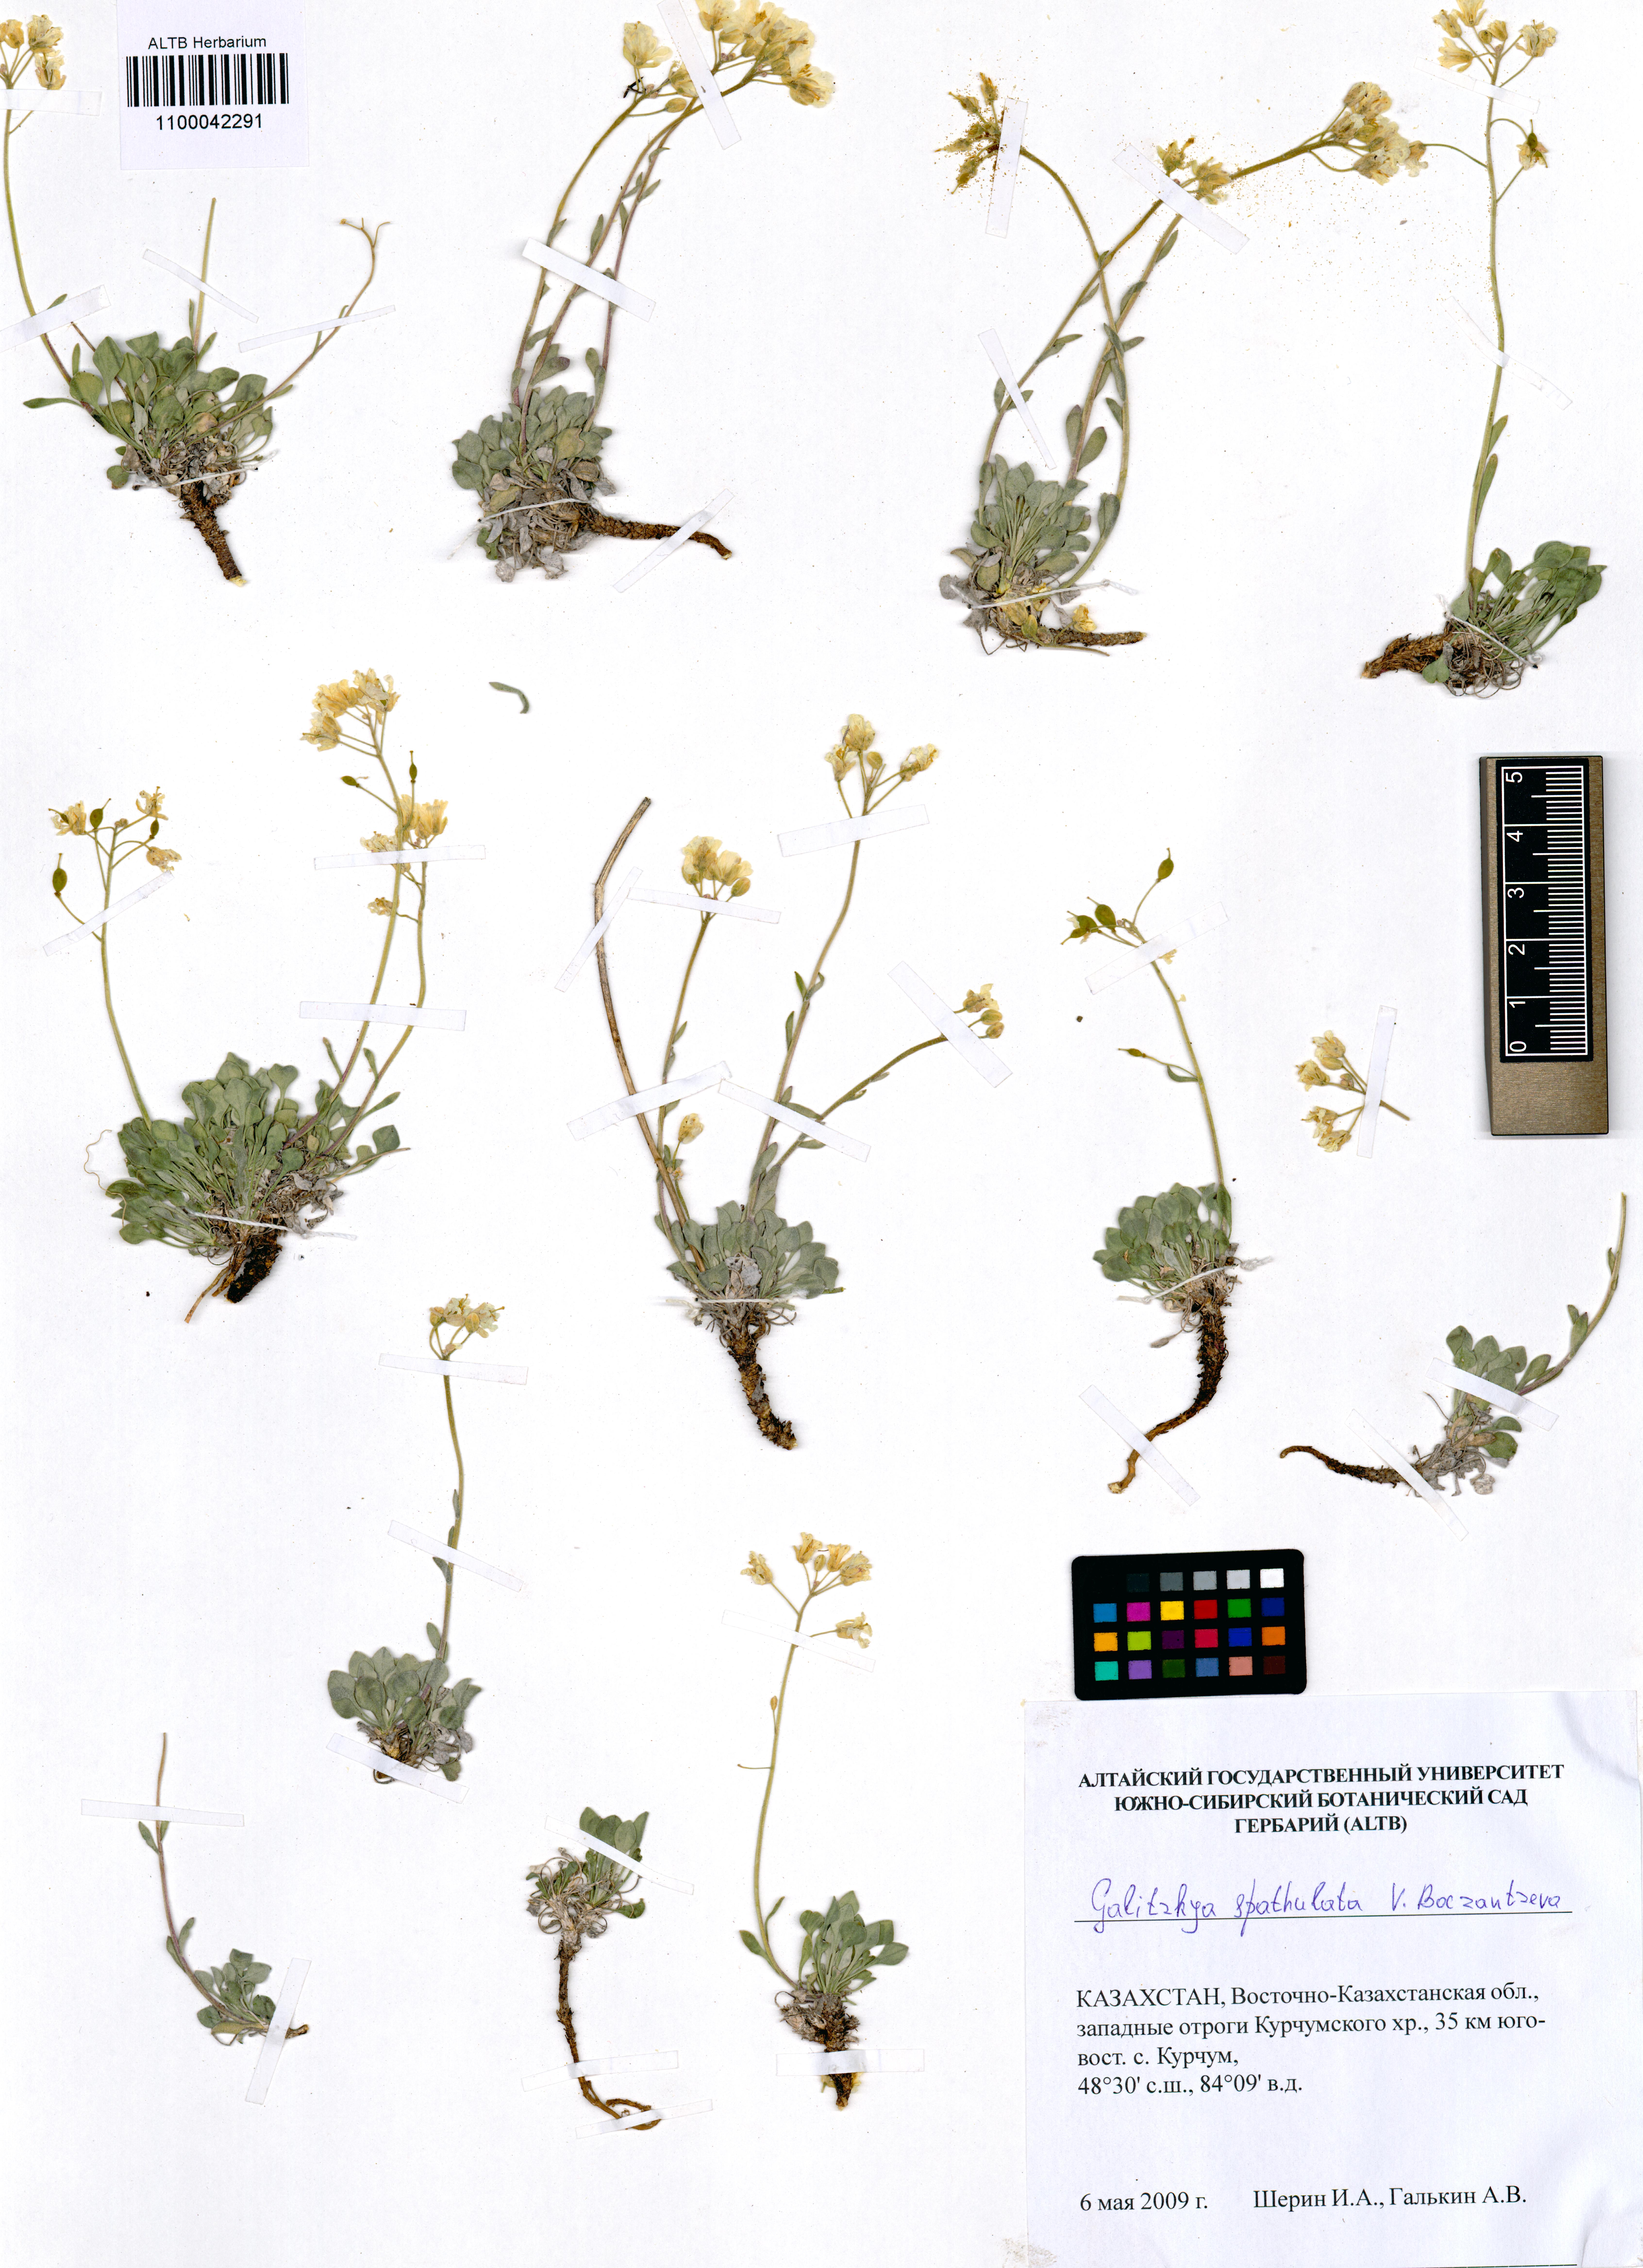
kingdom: Plantae
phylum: Tracheophyta
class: Magnoliopsida
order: Brassicales
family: Brassicaceae
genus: Galitzkya
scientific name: Galitzkya spathulata
